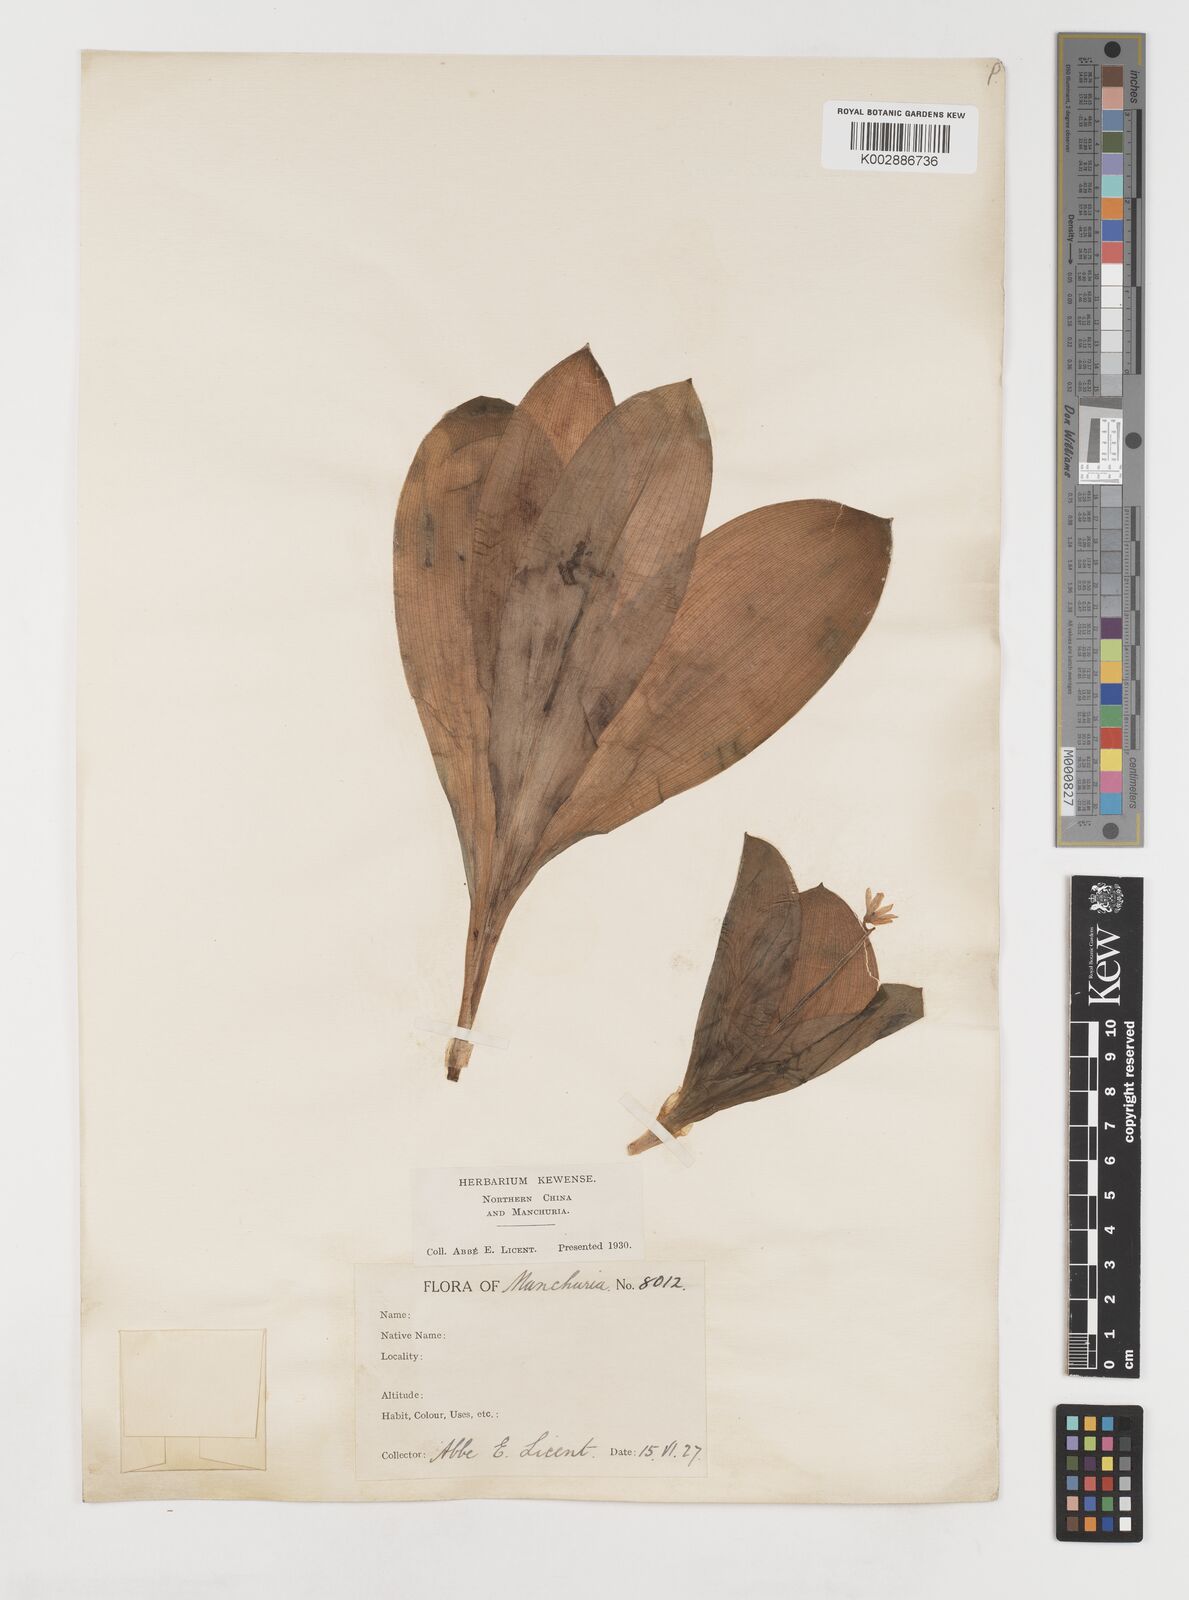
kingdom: Plantae
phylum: Tracheophyta
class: Liliopsida
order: Liliales
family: Liliaceae
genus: Clintonia
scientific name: Clintonia udensis
